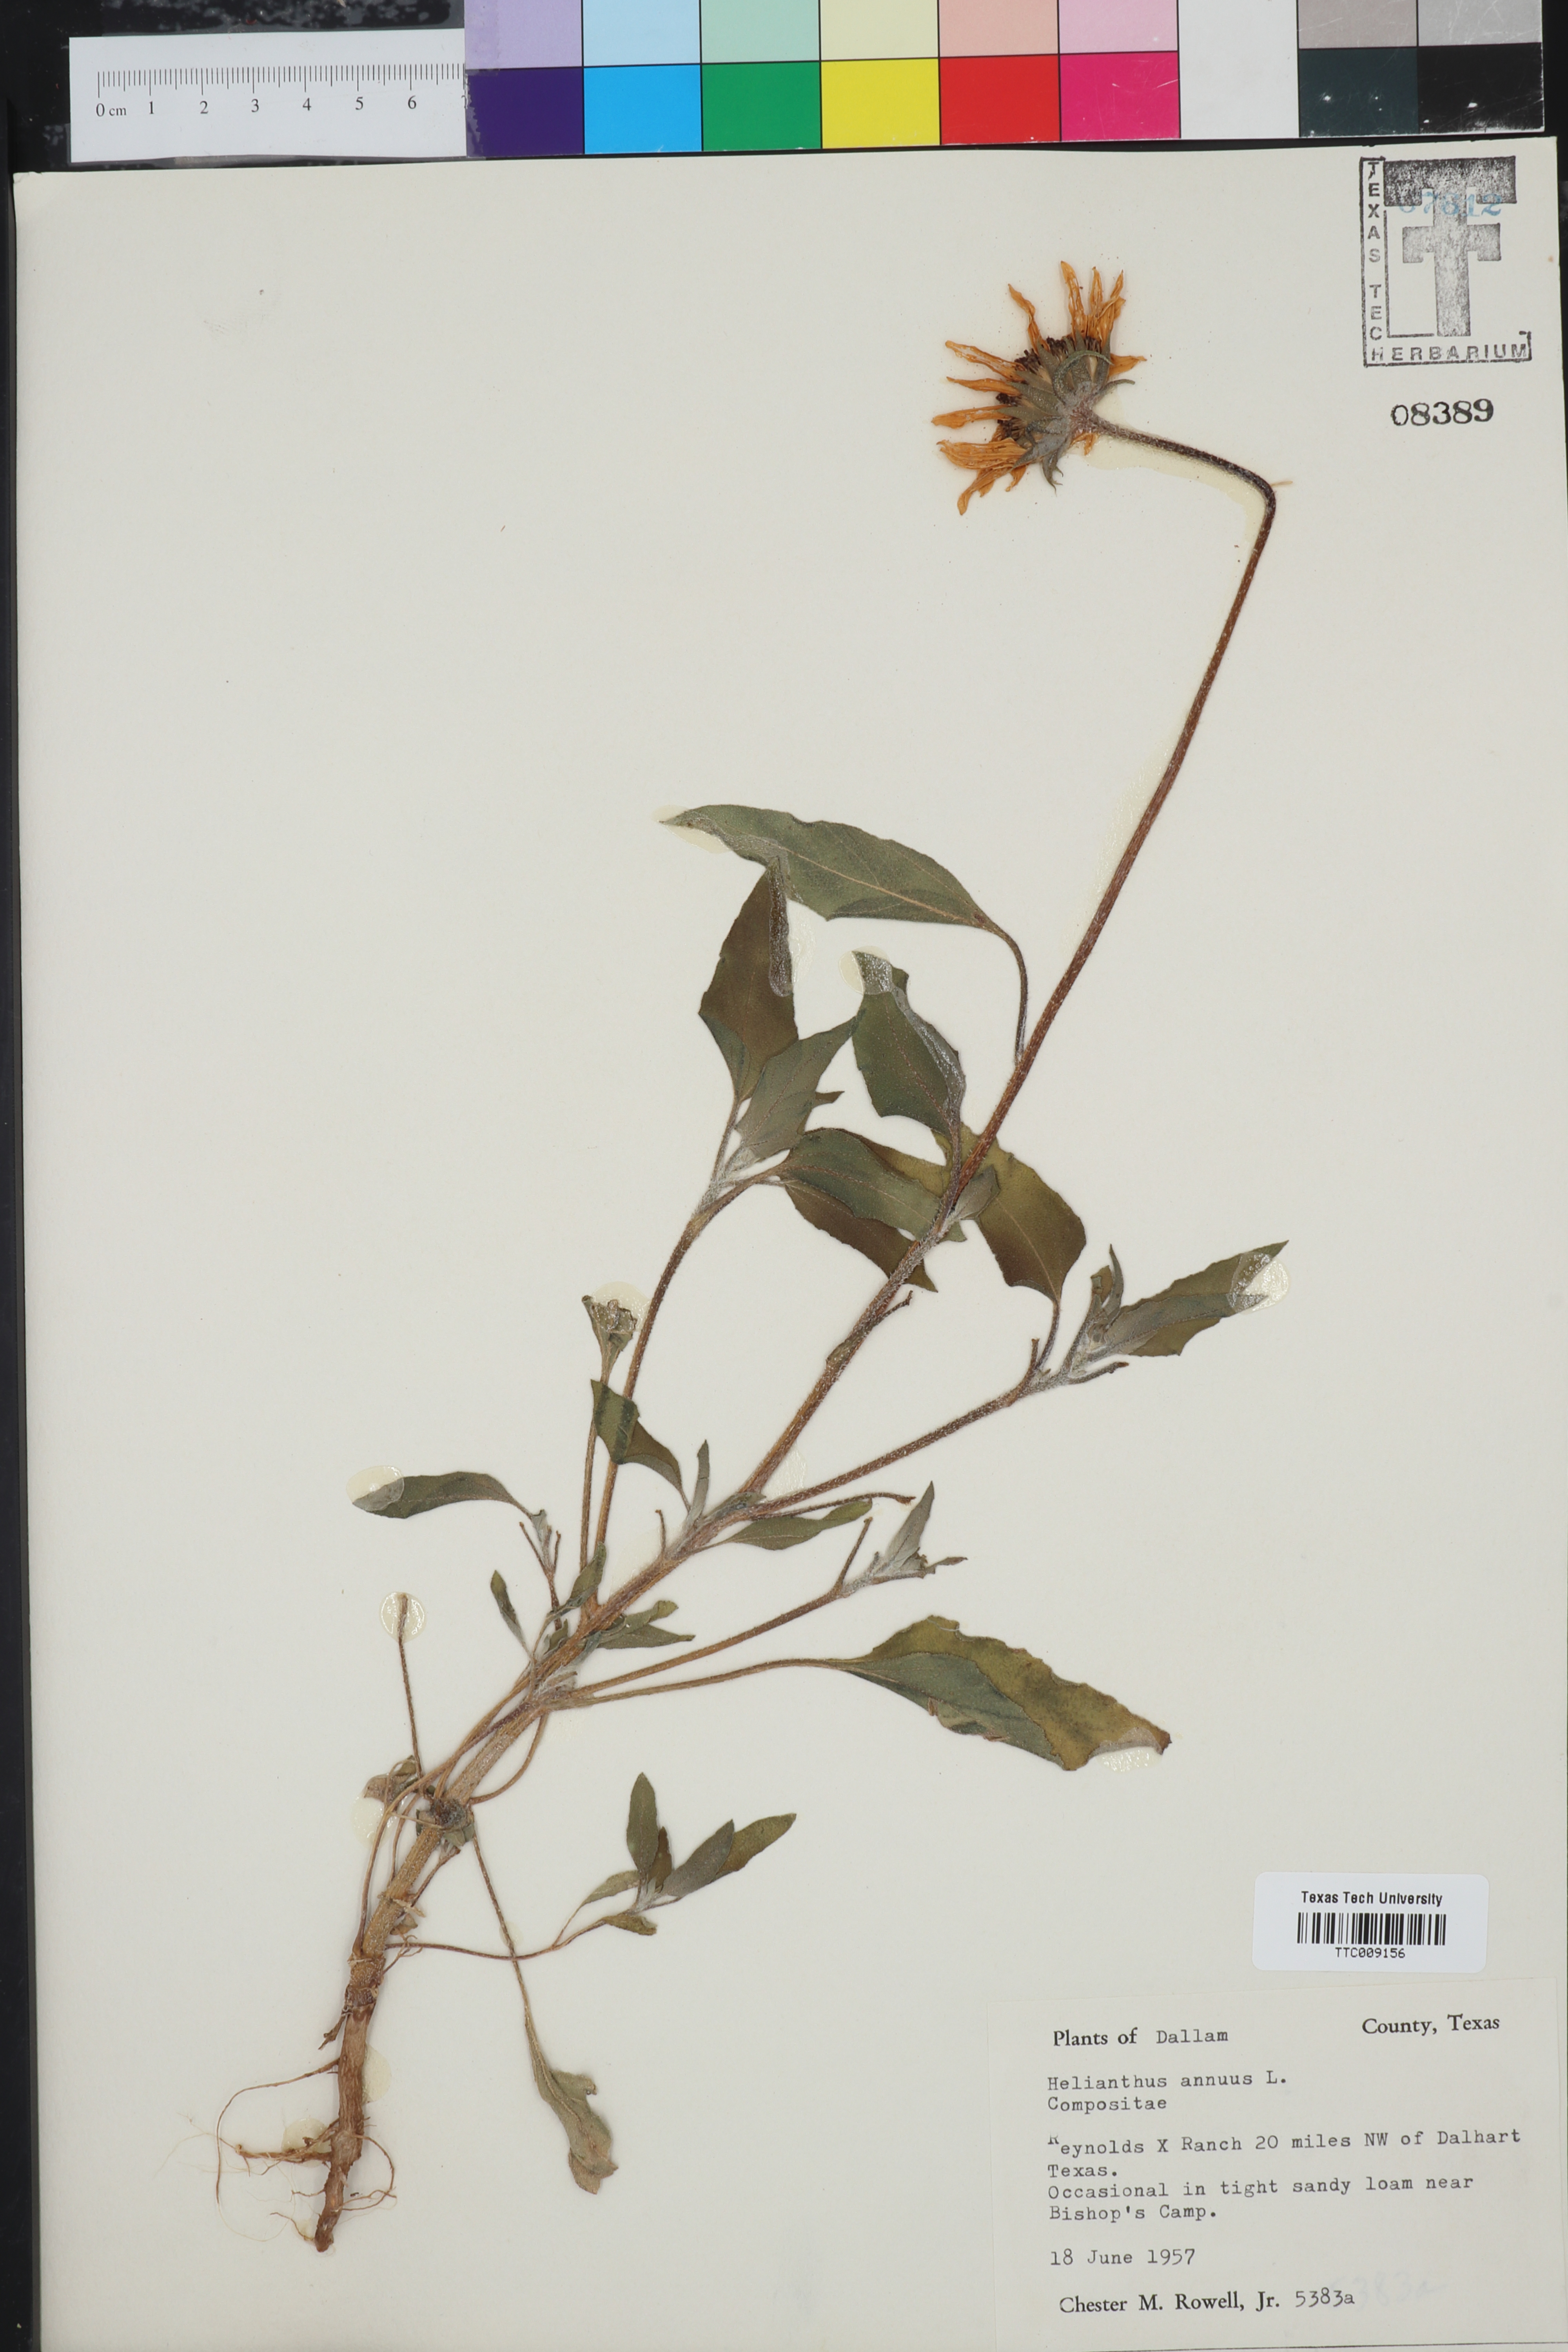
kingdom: Plantae
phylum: Tracheophyta
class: Magnoliopsida
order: Asterales
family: Asteraceae
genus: Helianthus
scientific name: Helianthus annuus
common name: Sunflower
